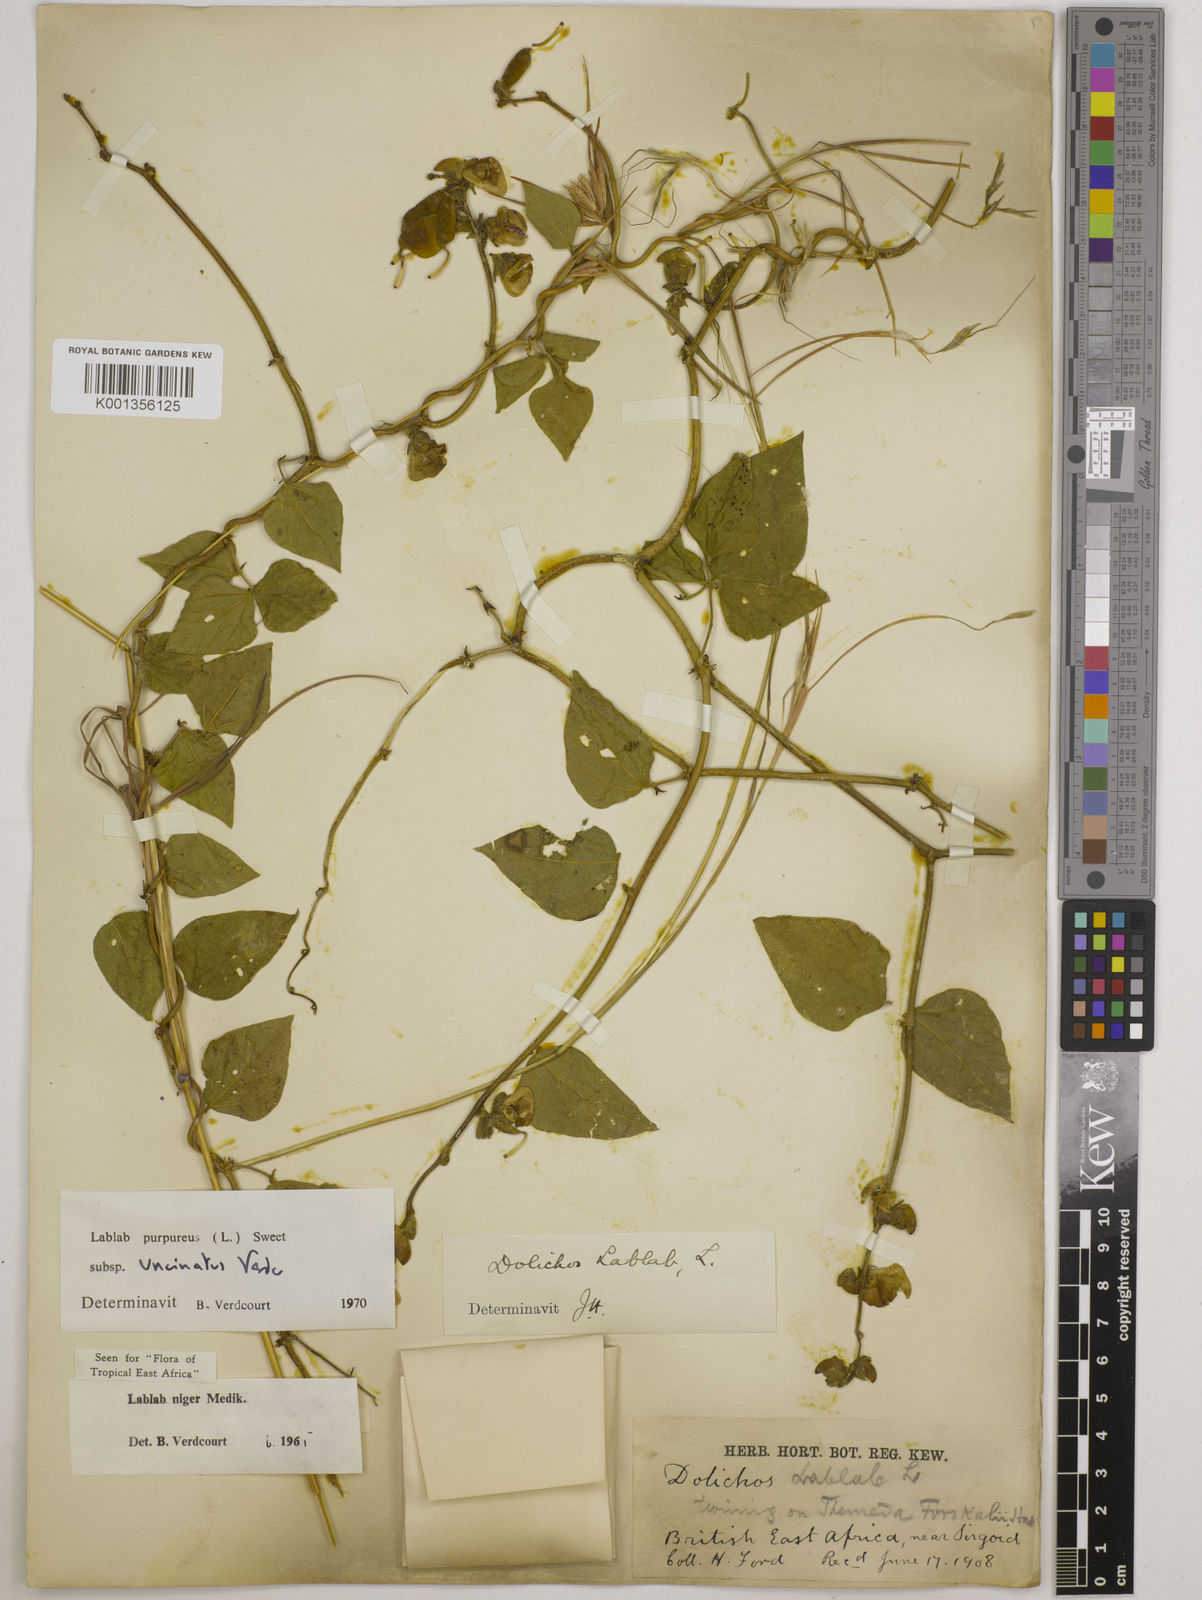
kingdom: Plantae
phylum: Tracheophyta
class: Magnoliopsida
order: Fabales
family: Fabaceae
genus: Lablab
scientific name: Lablab purpureus
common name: Lablab-bean
